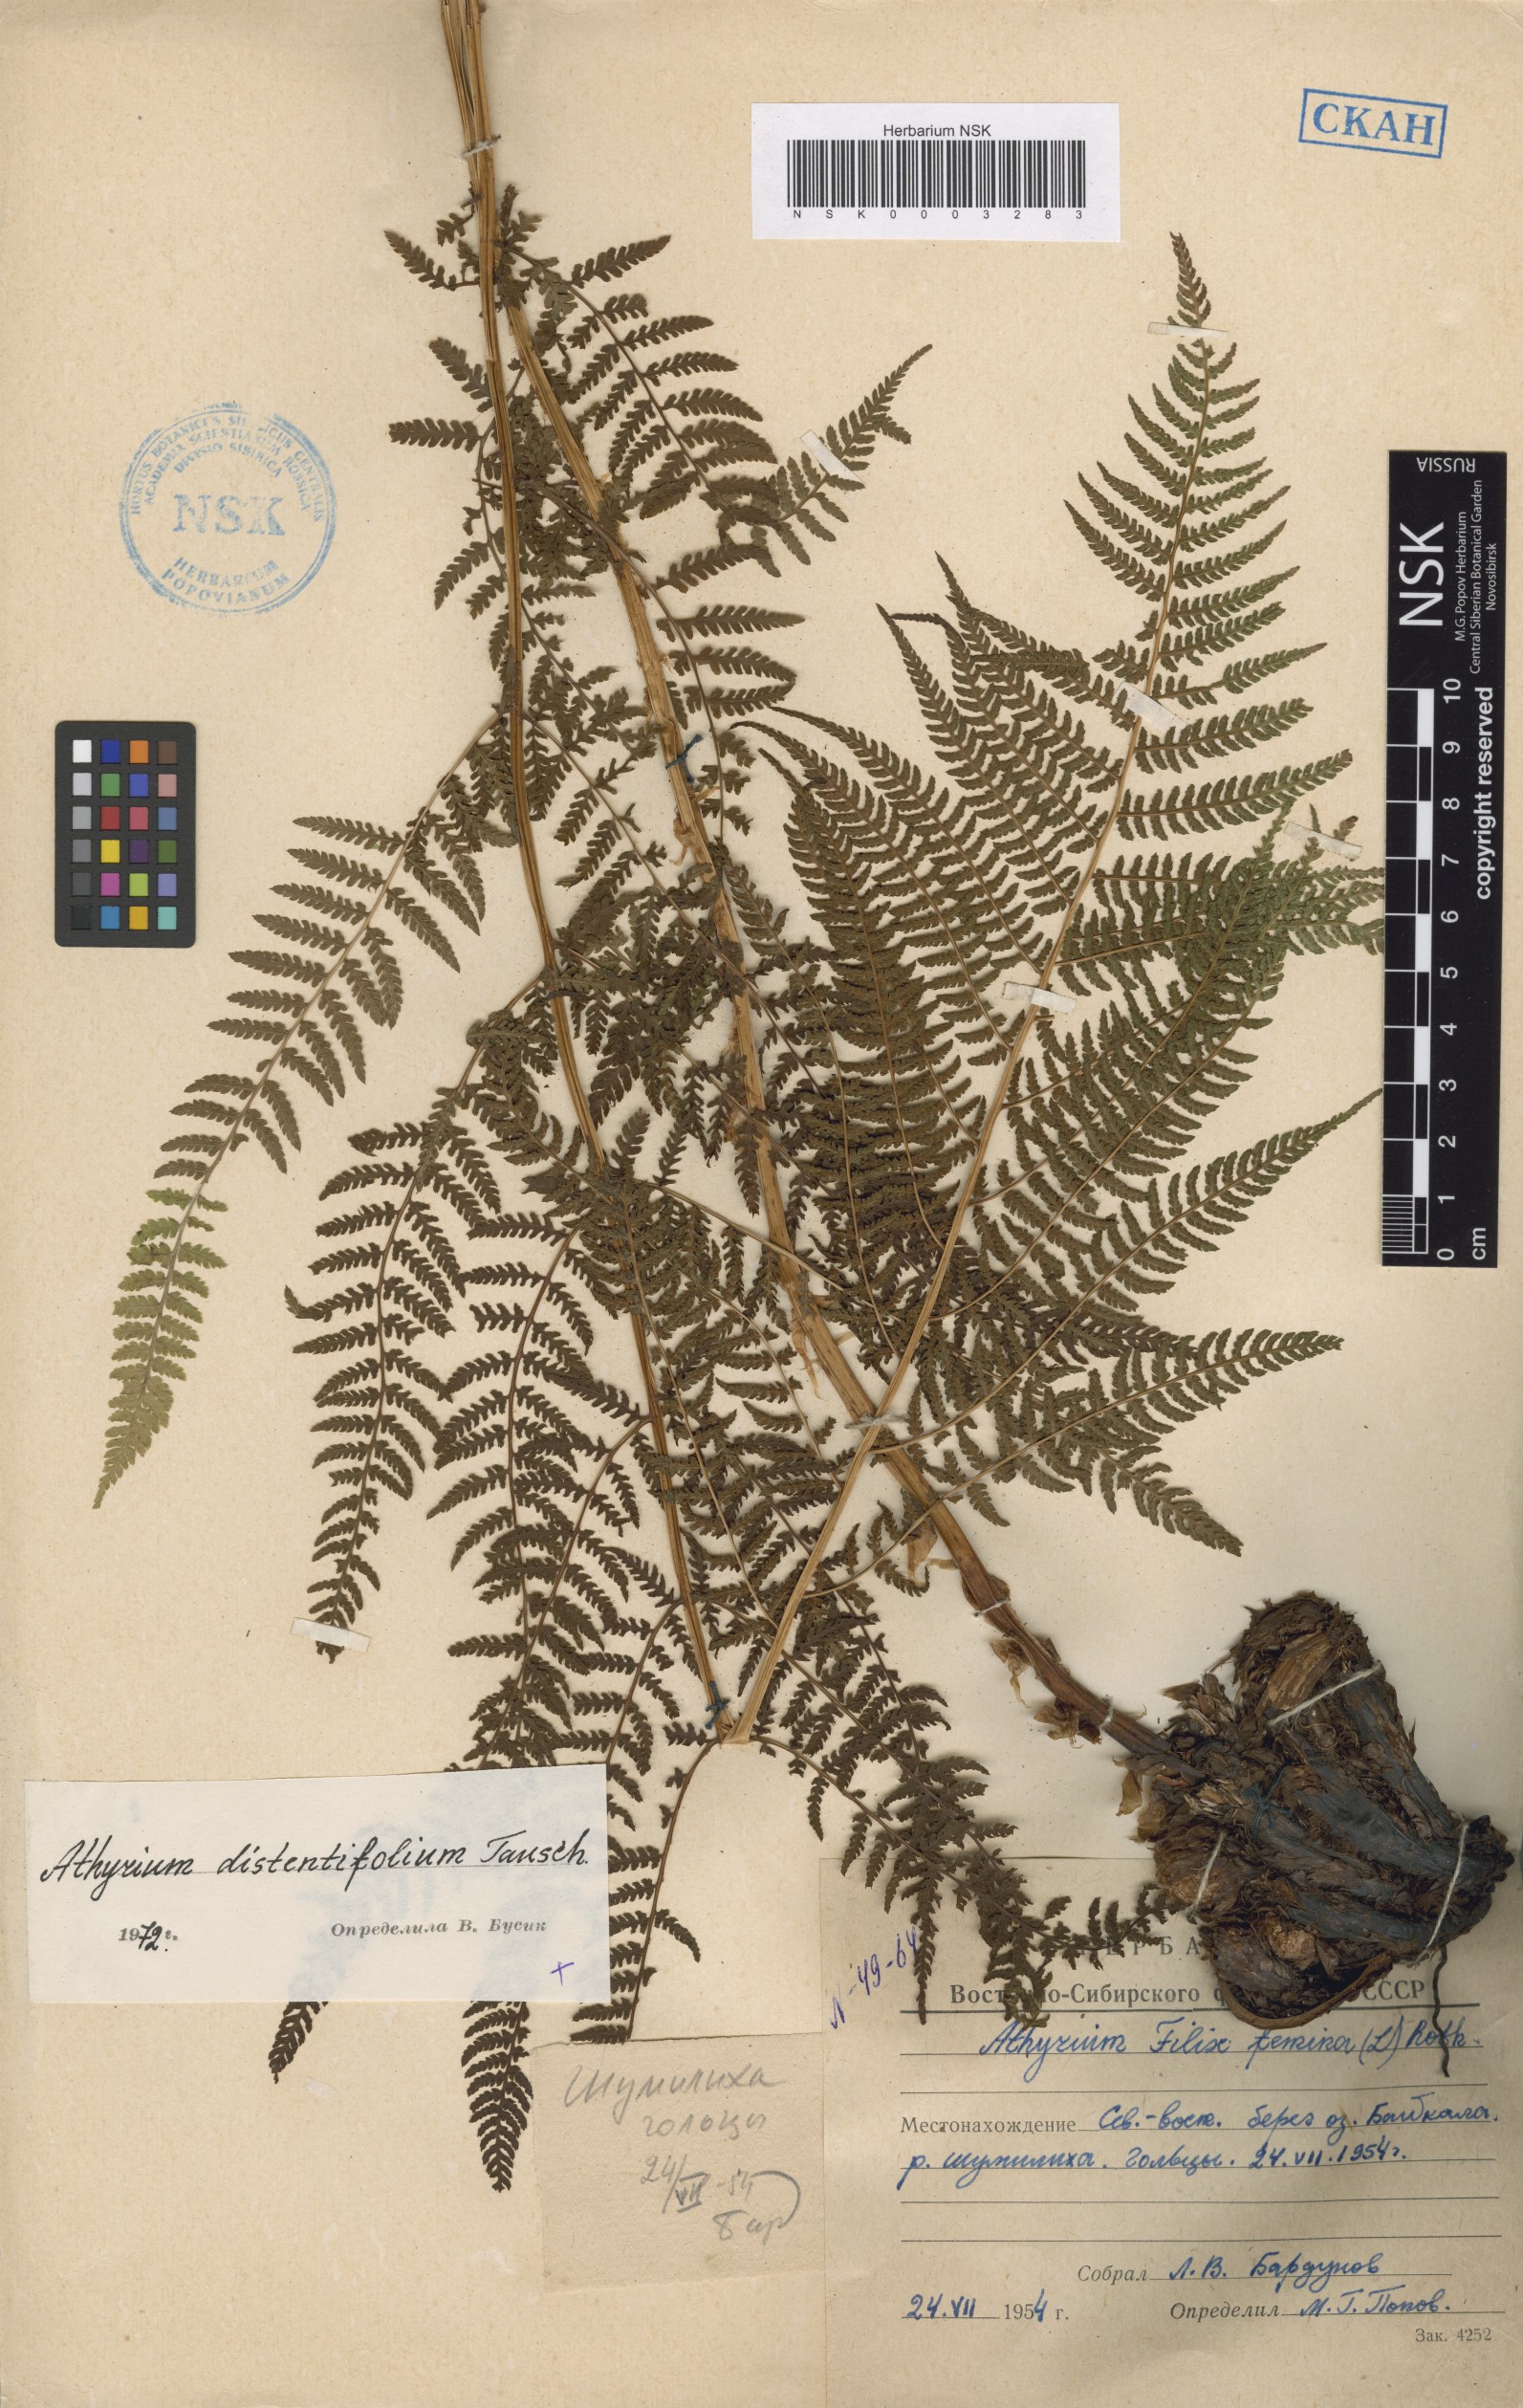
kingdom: Plantae
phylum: Tracheophyta
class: Polypodiopsida
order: Polypodiales
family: Athyriaceae
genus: Pseudathyrium
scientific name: Pseudathyrium alpestre
